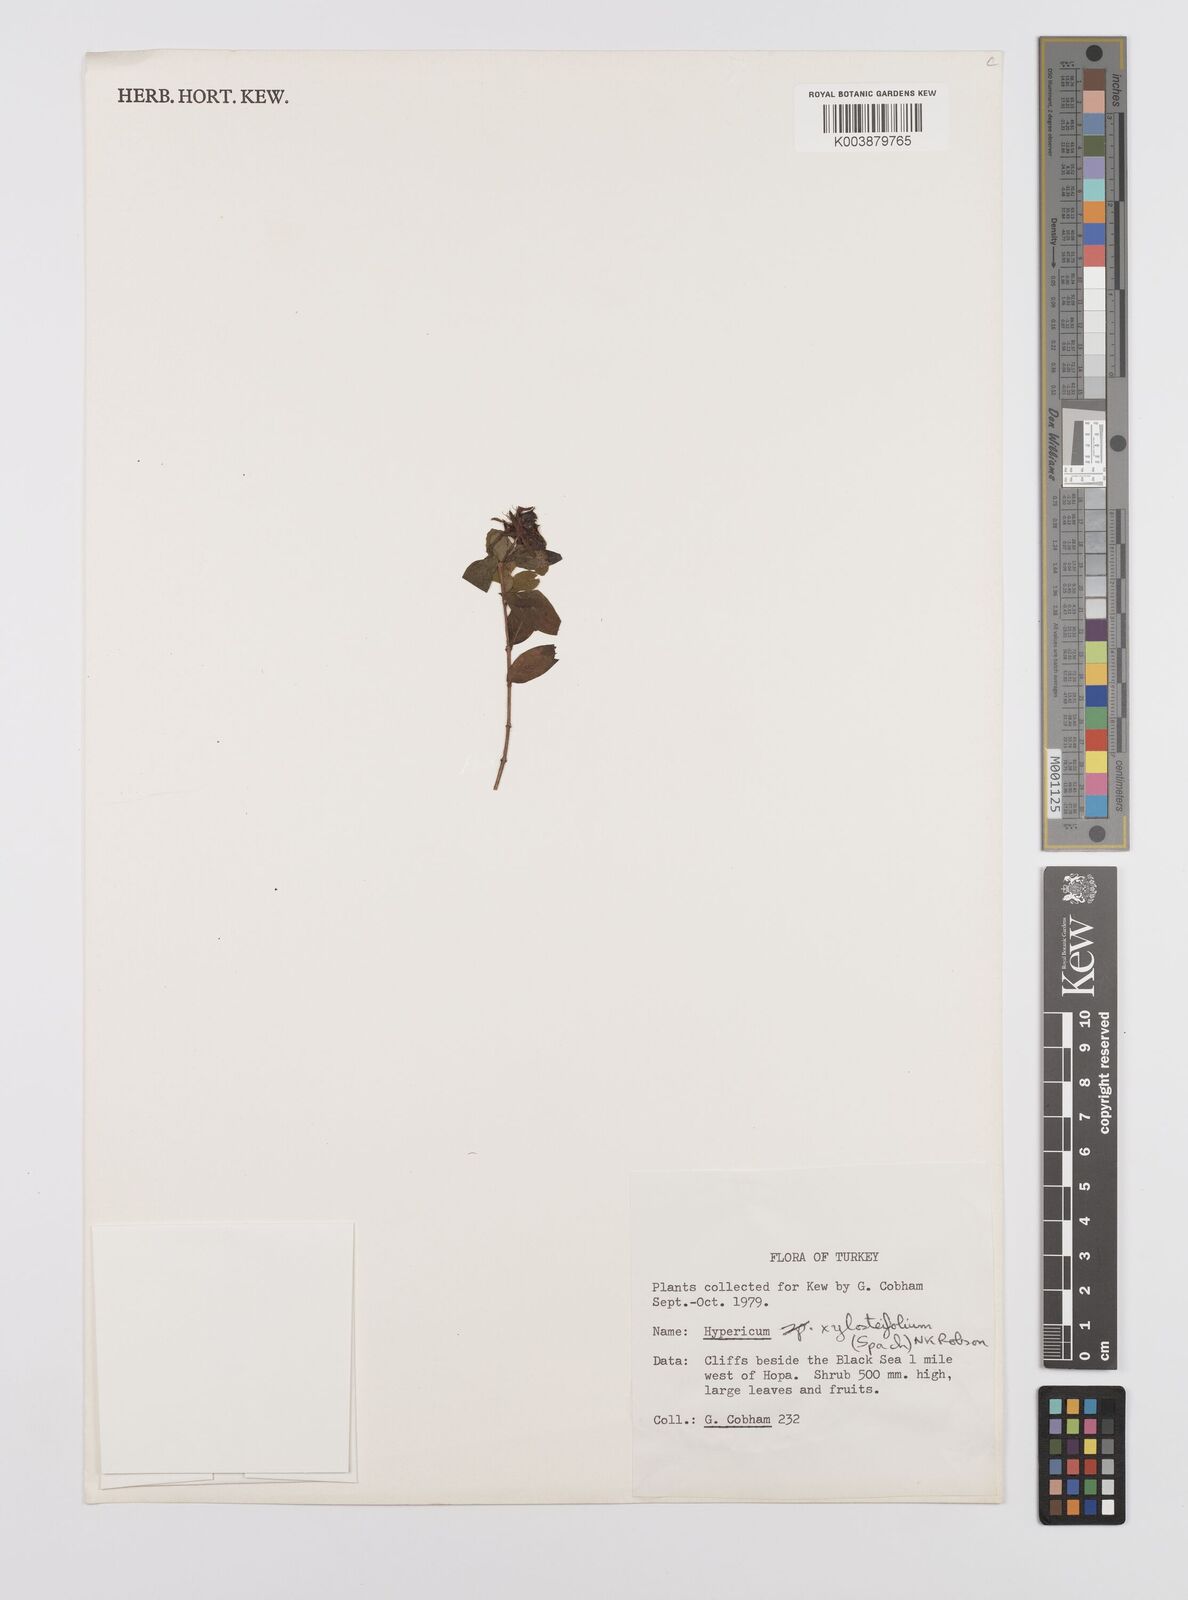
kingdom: Plantae
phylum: Tracheophyta
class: Magnoliopsida
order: Malpighiales
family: Hypericaceae
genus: Hypericum
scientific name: Hypericum xylosteifolium
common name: Turkish tutsan
